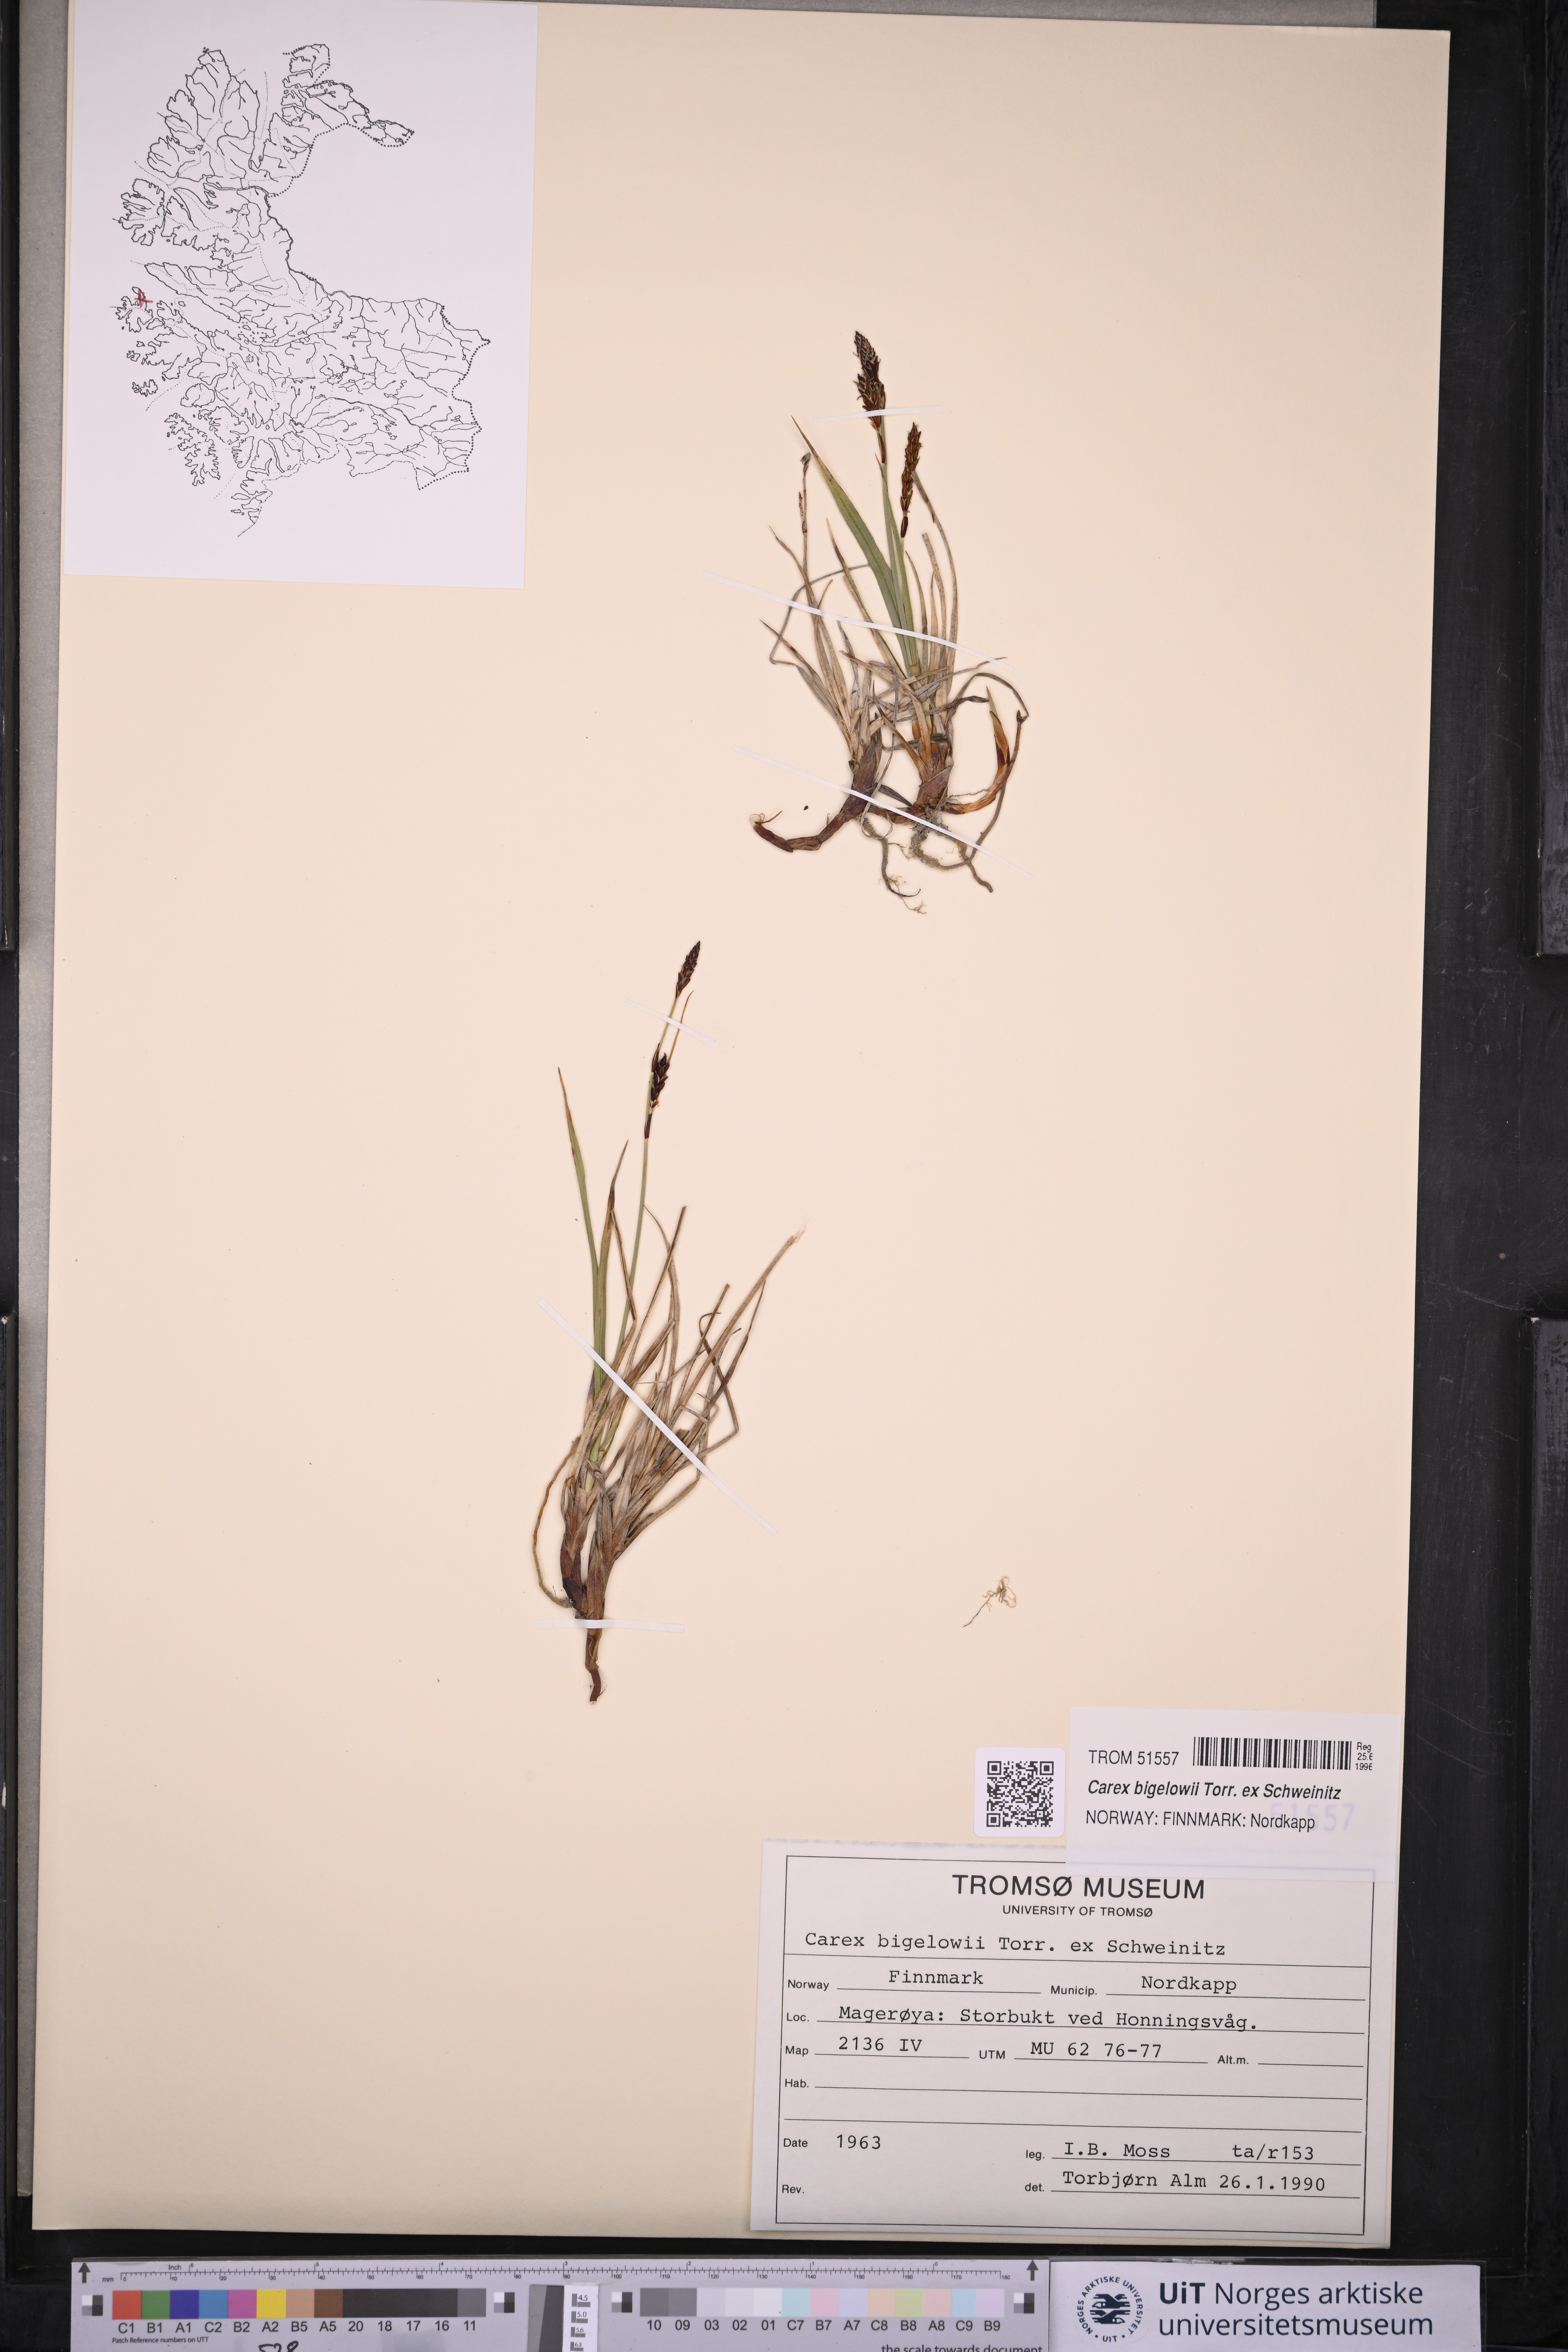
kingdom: Plantae
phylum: Tracheophyta
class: Liliopsida
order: Poales
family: Cyperaceae
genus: Carex
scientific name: Carex bigelowii
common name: Stiff sedge
